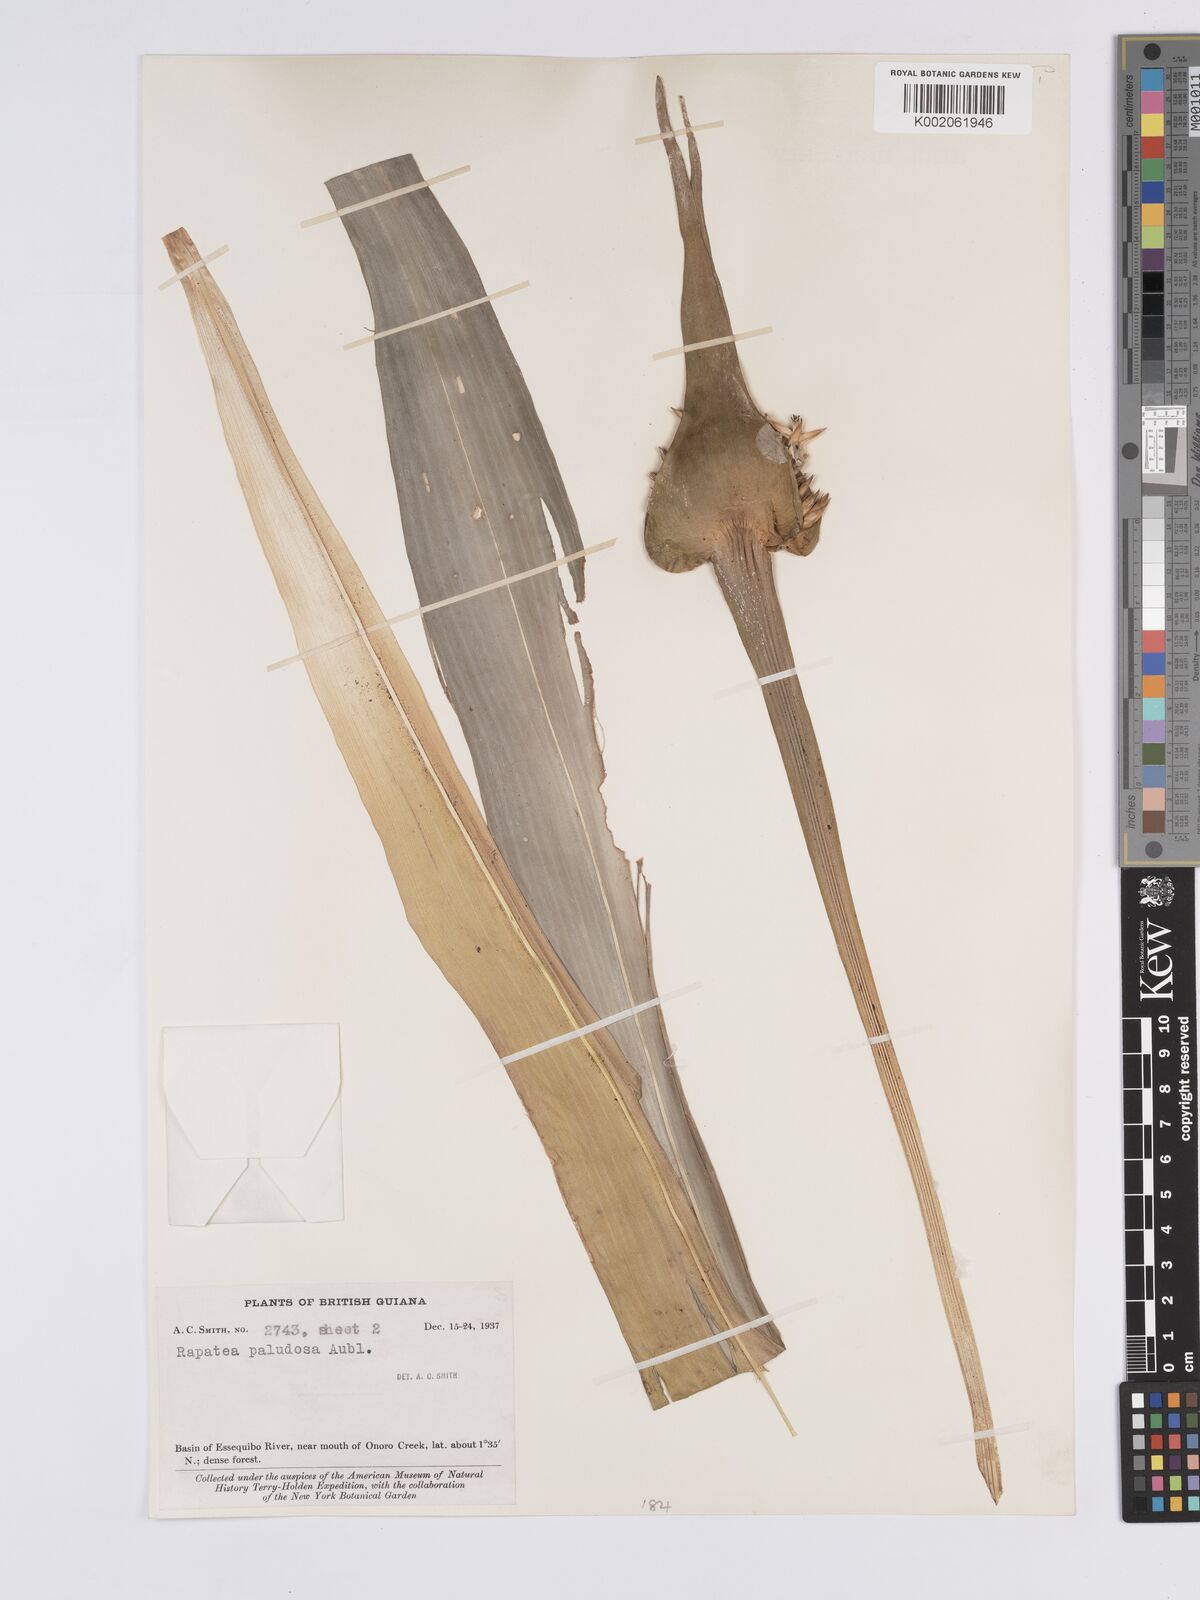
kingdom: Plantae
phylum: Tracheophyta
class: Liliopsida
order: Poales
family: Rapateaceae
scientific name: Rapateaceae
